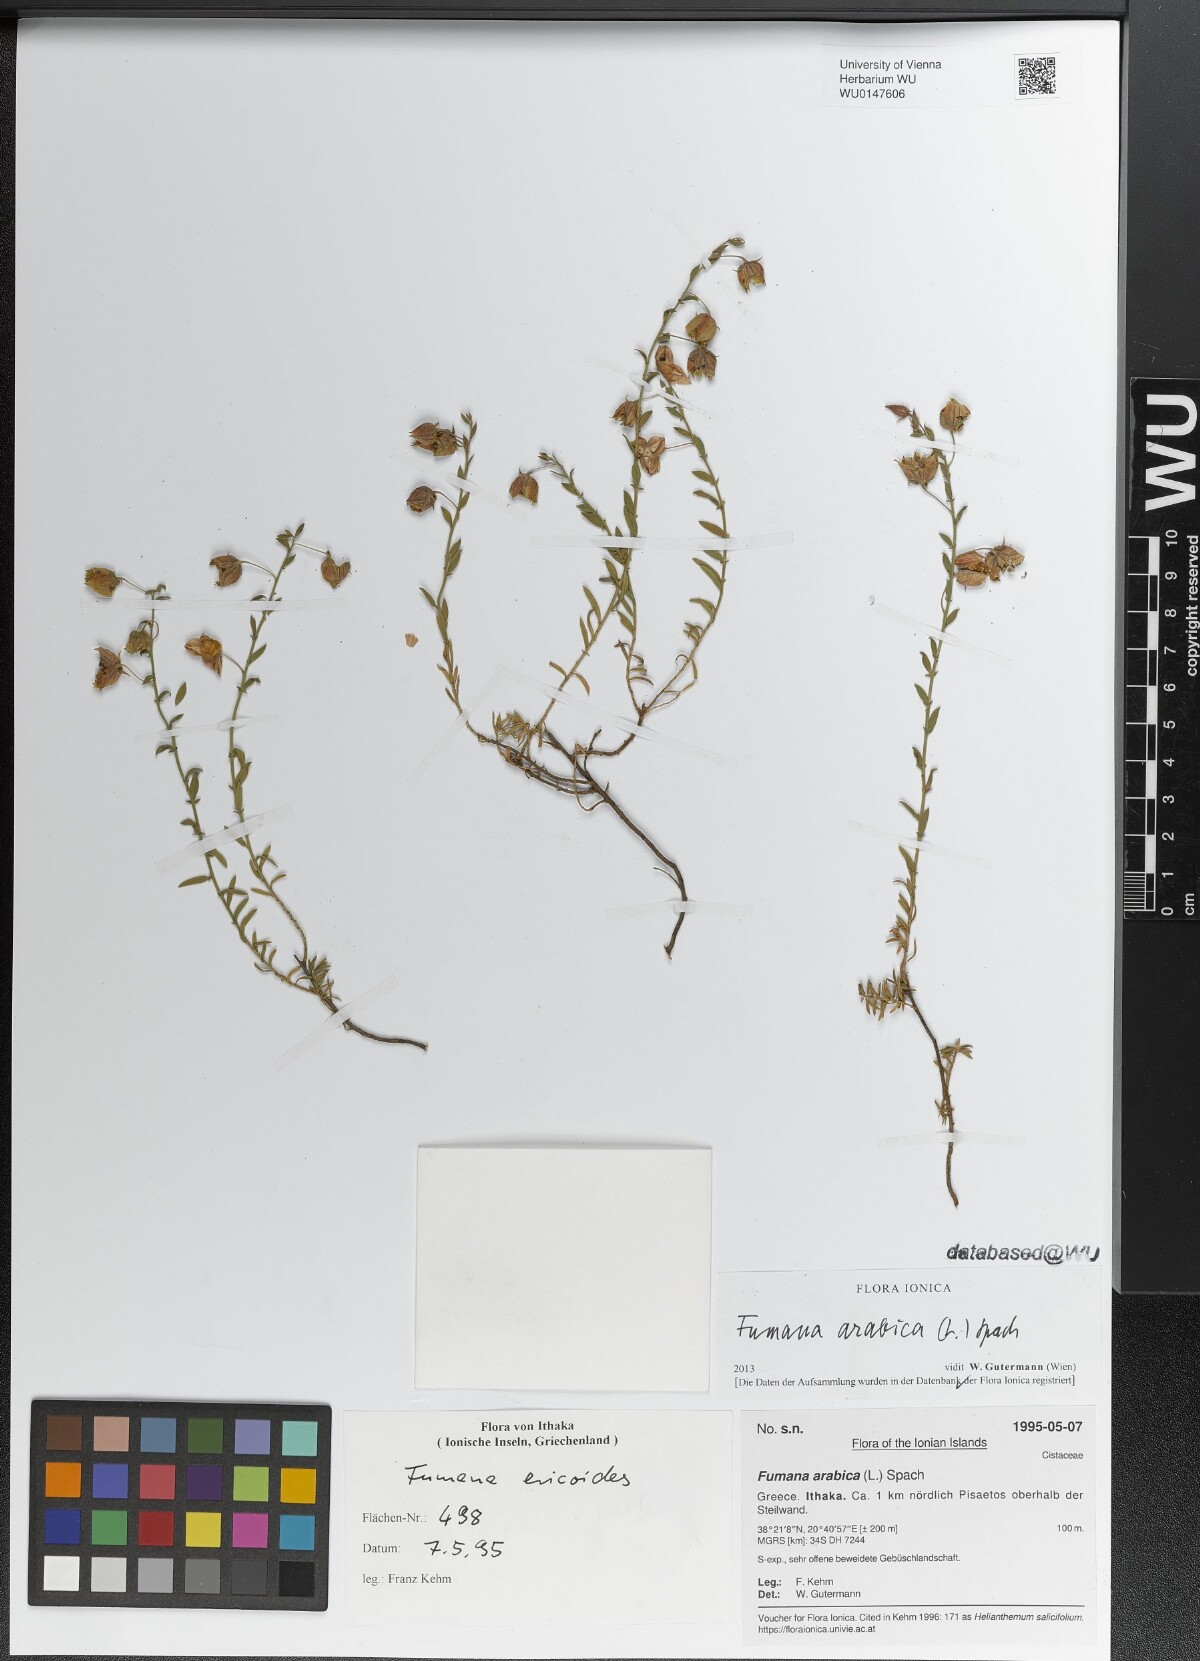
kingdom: Plantae
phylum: Tracheophyta
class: Magnoliopsida
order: Malvales
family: Cistaceae
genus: Fumana
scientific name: Fumana arabica
